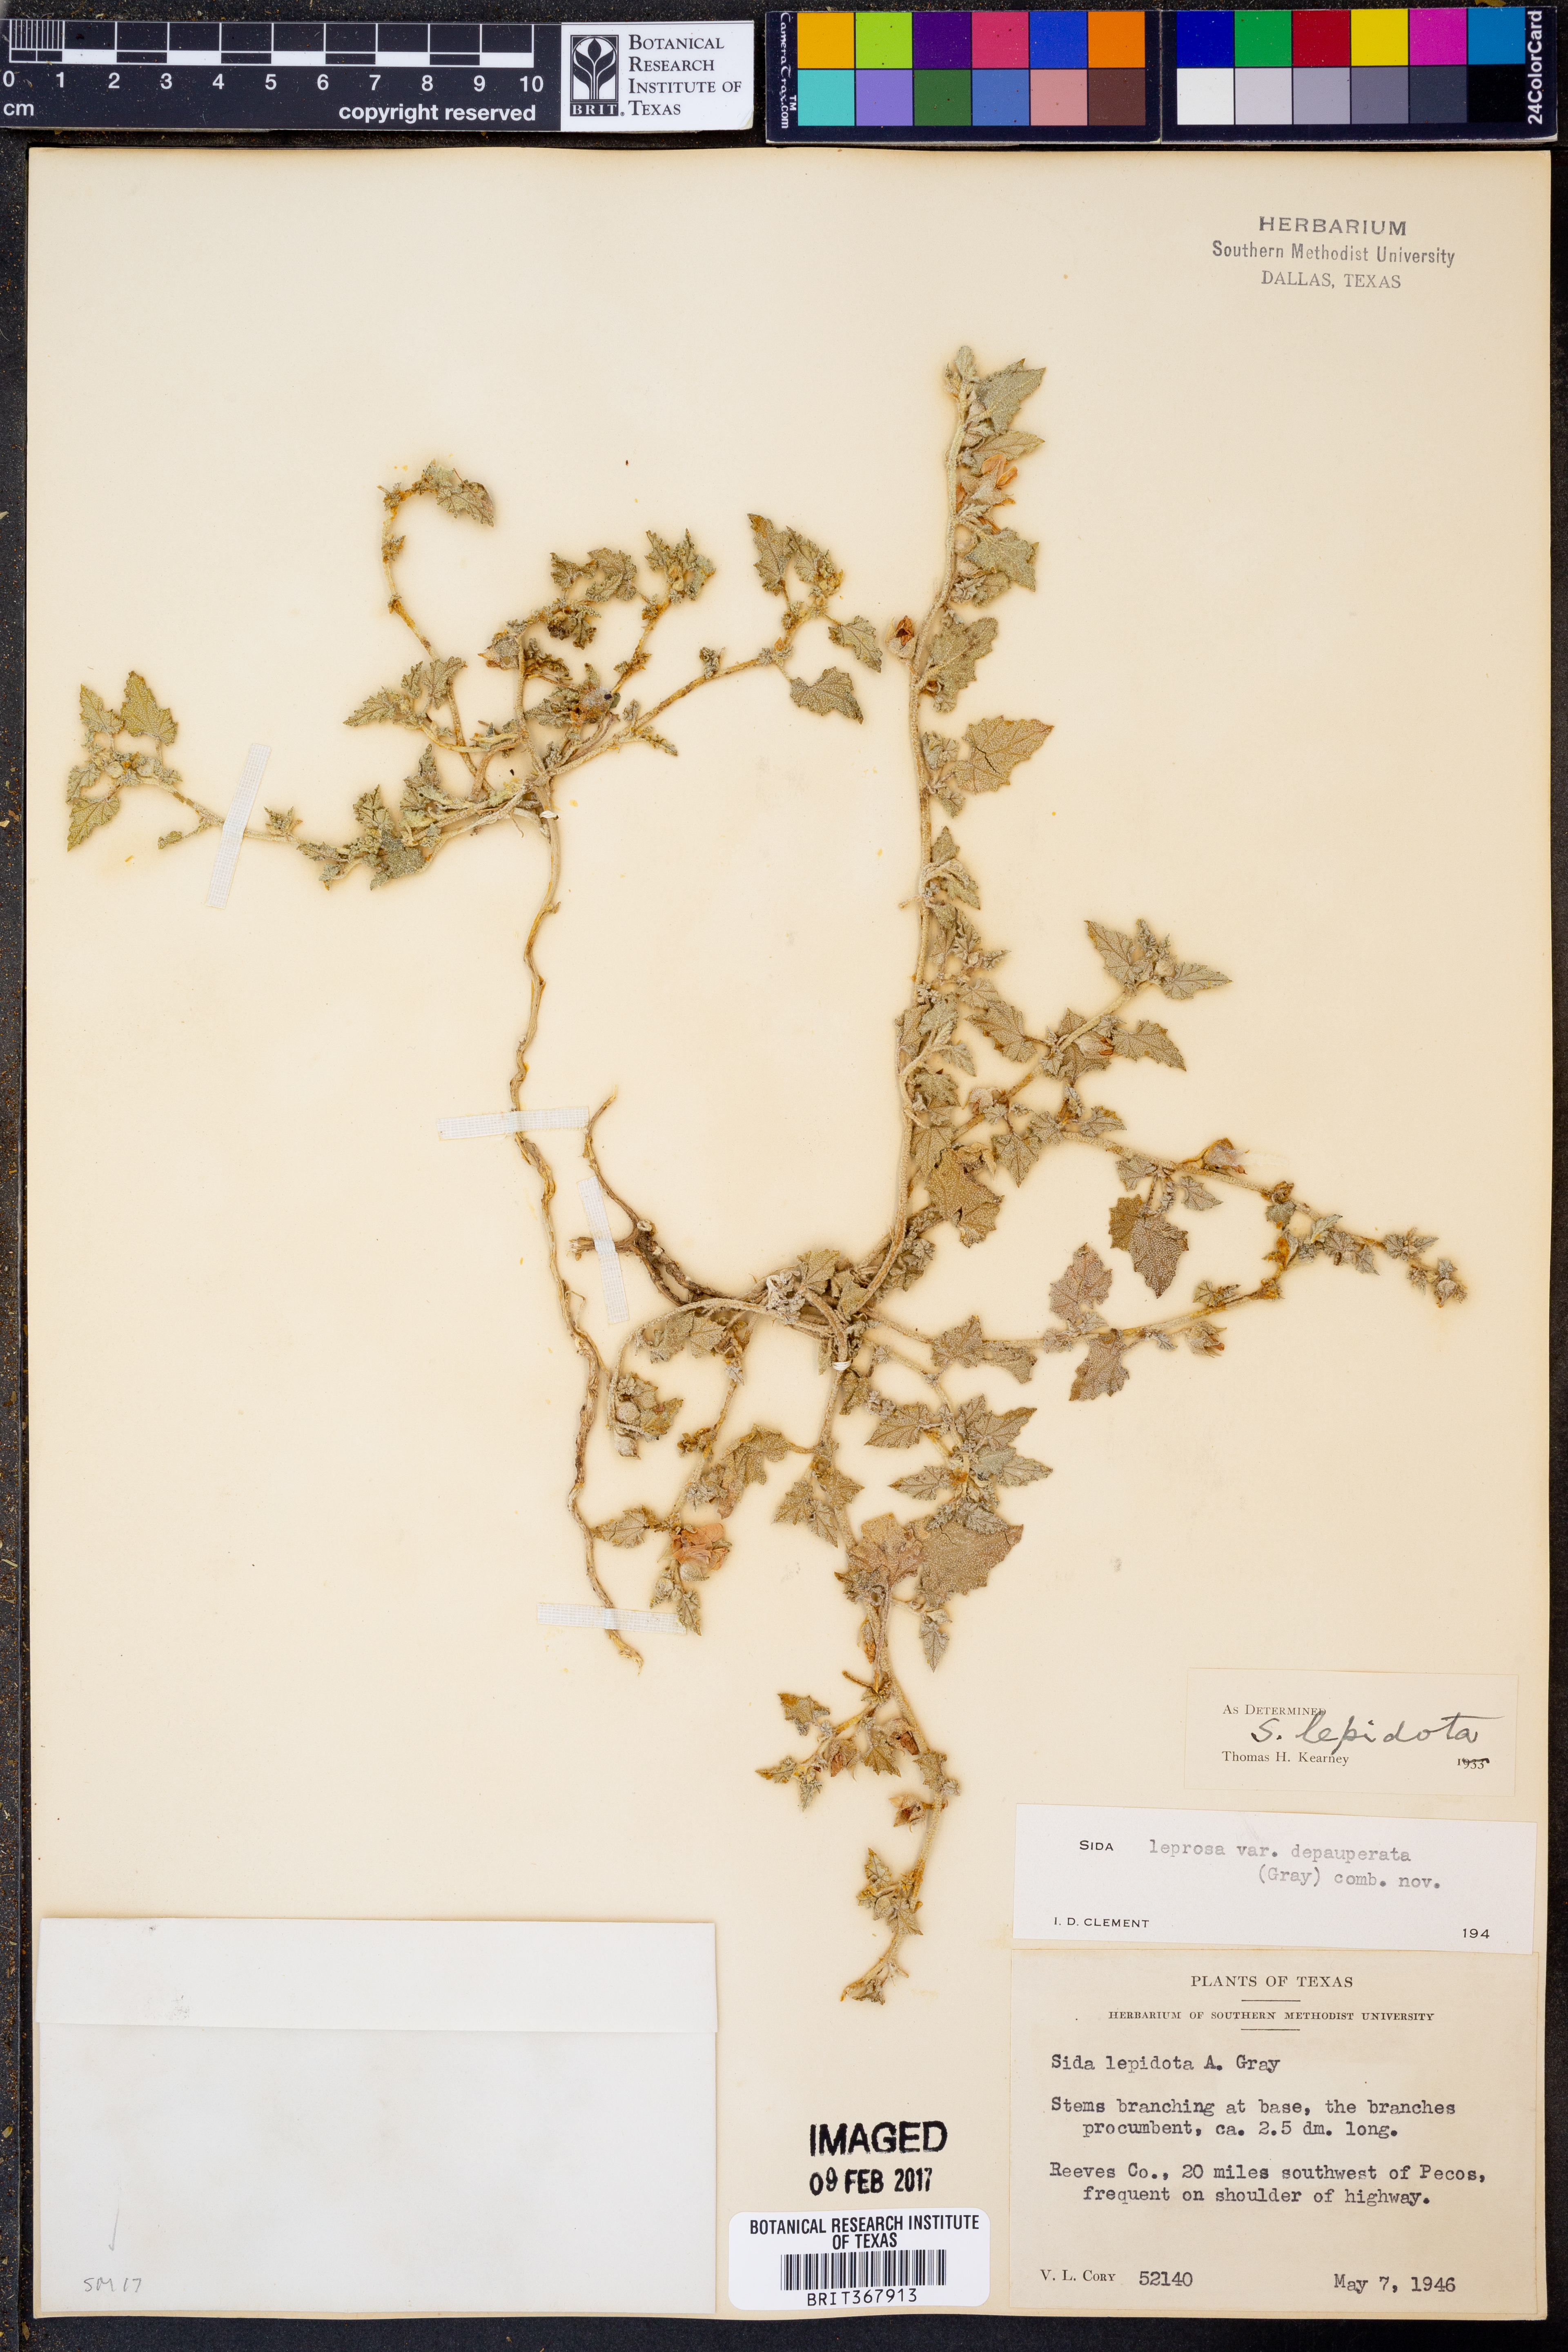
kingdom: Plantae
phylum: Tracheophyta
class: Magnoliopsida
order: Malvales
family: Malvaceae
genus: Malvella
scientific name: Malvella lepidota
